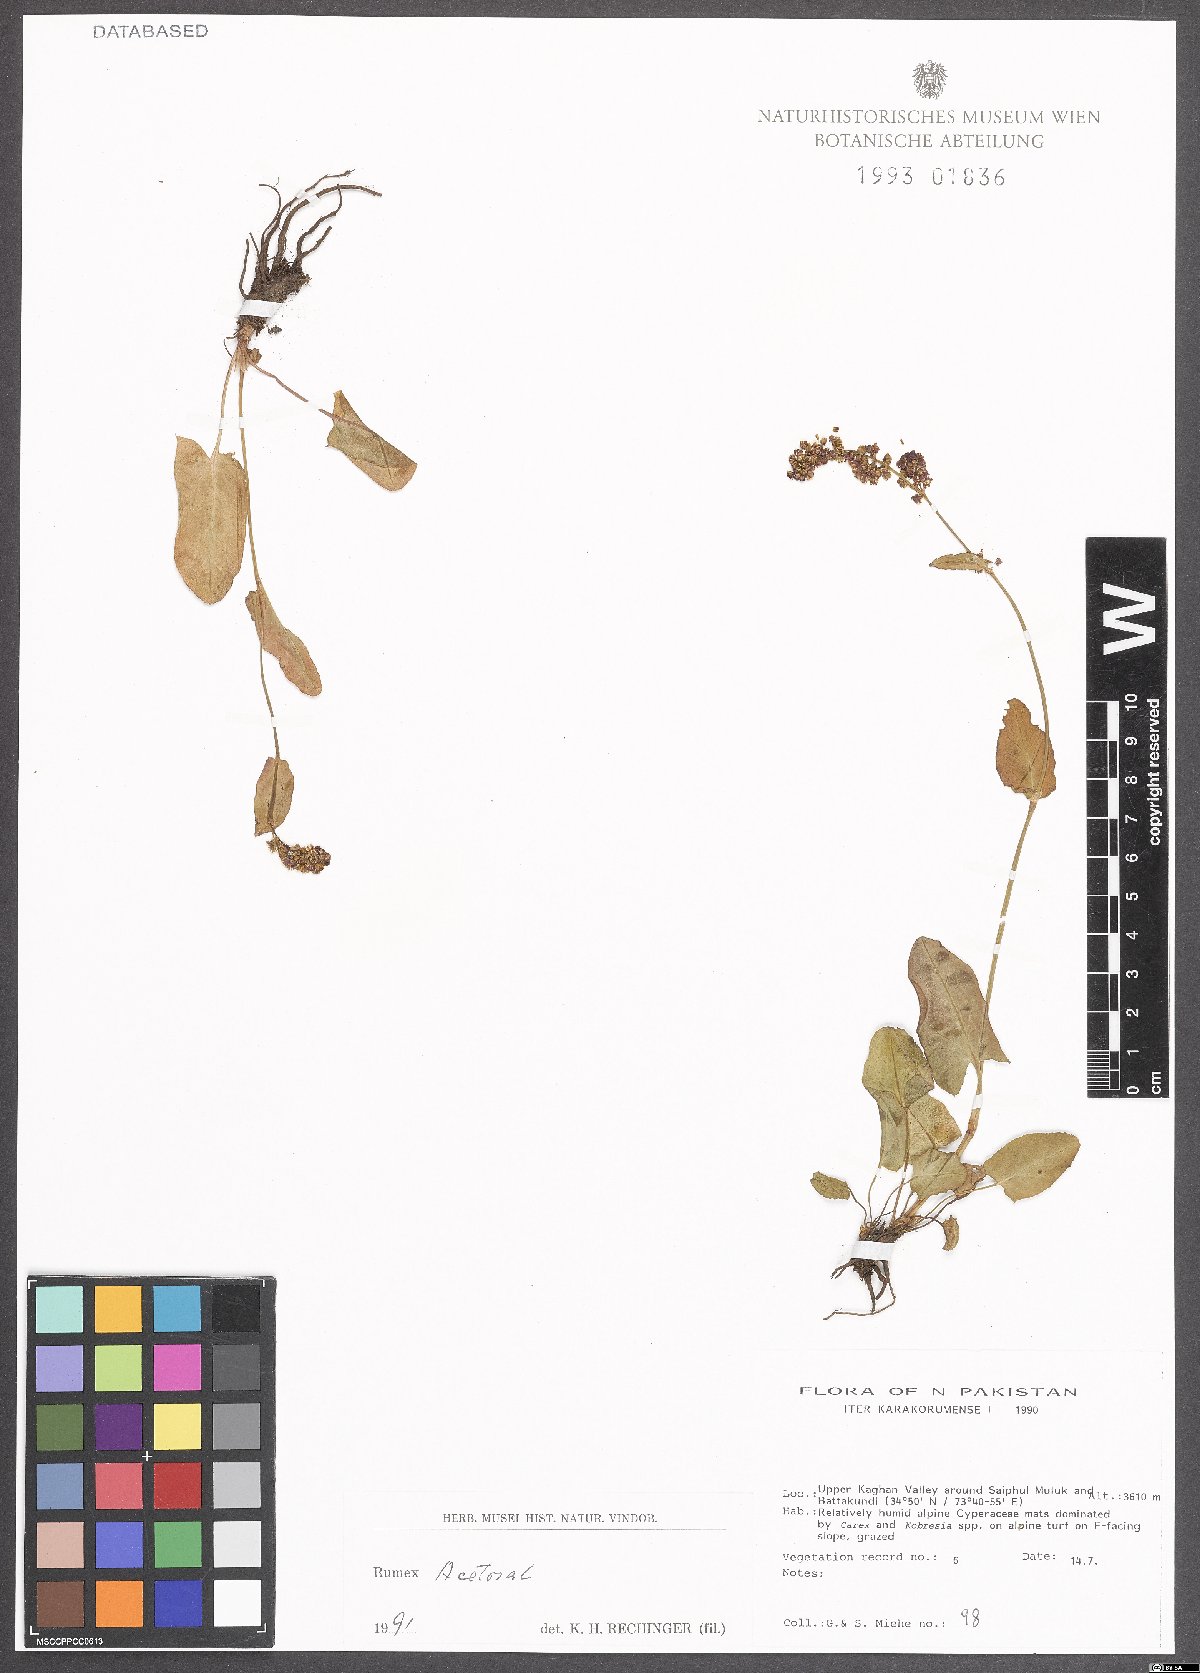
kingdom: Plantae
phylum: Tracheophyta
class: Magnoliopsida
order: Caryophyllales
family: Polygonaceae
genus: Rumex
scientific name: Rumex acetosa
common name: Garden sorrel
